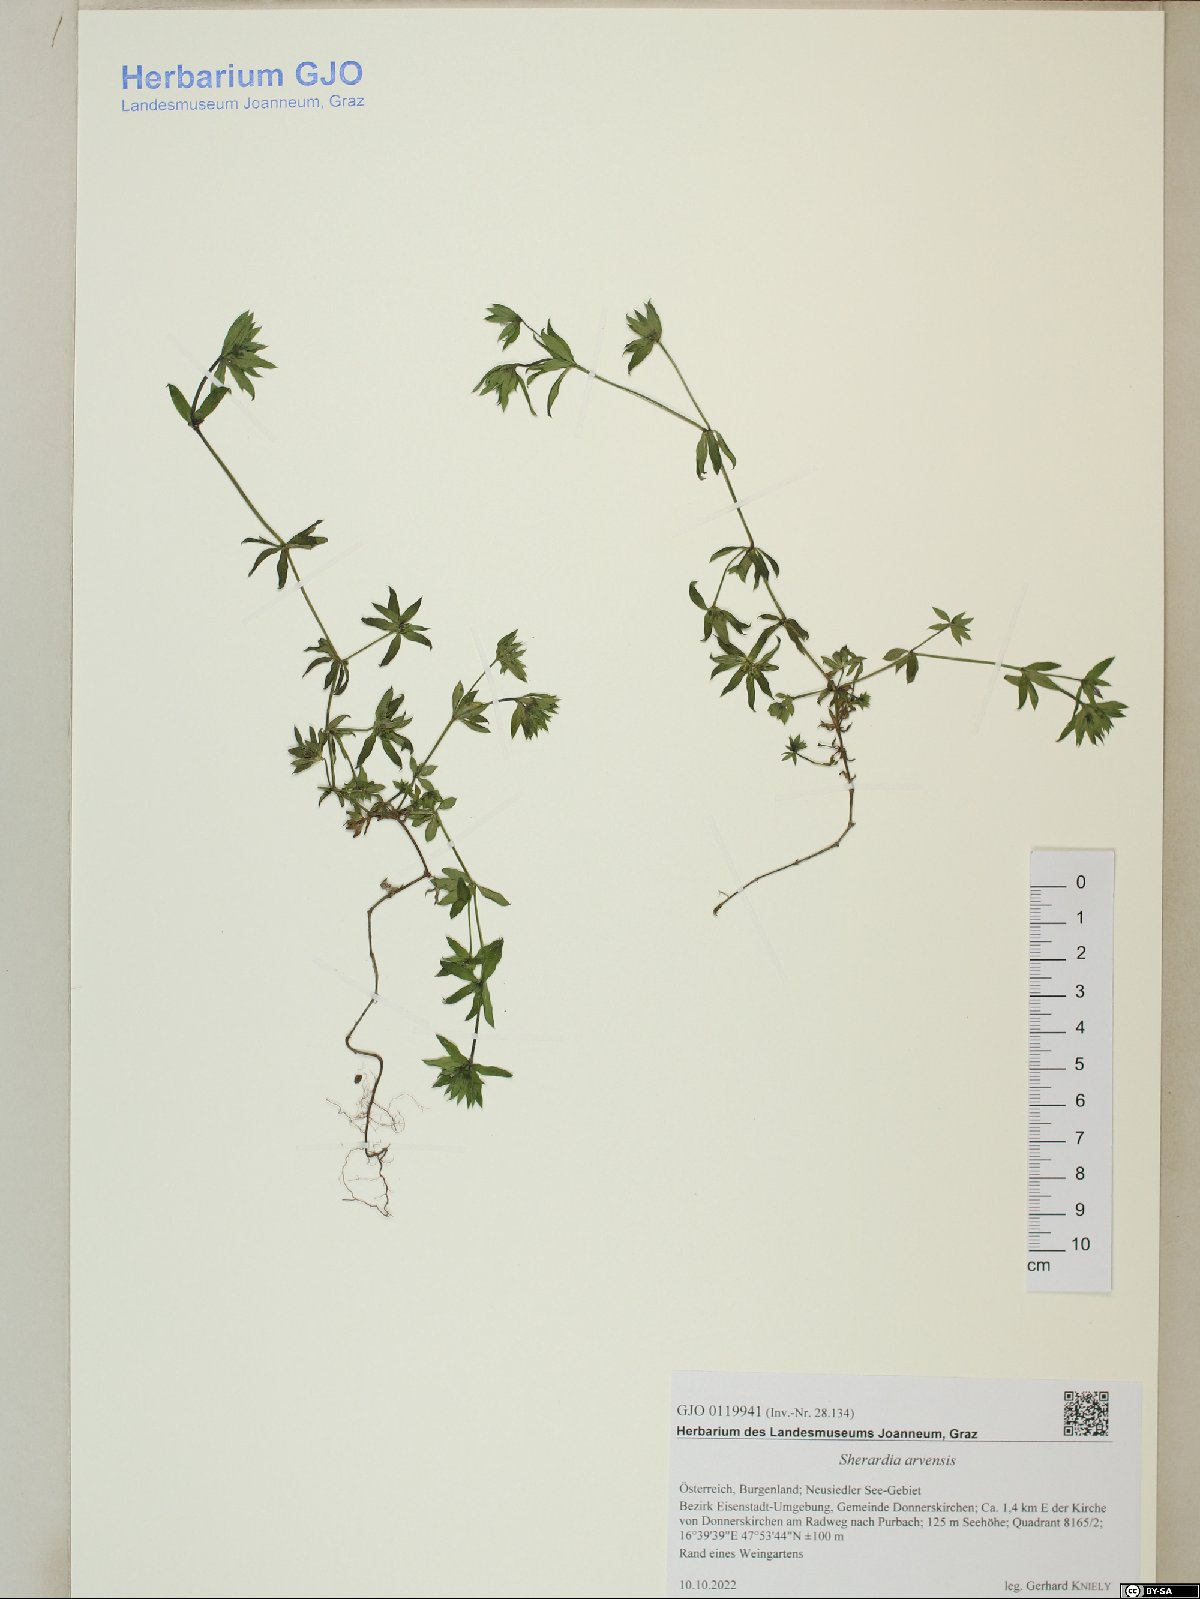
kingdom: Plantae
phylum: Tracheophyta
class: Magnoliopsida
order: Gentianales
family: Rubiaceae
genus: Sherardia
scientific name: Sherardia arvensis
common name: Field madder
